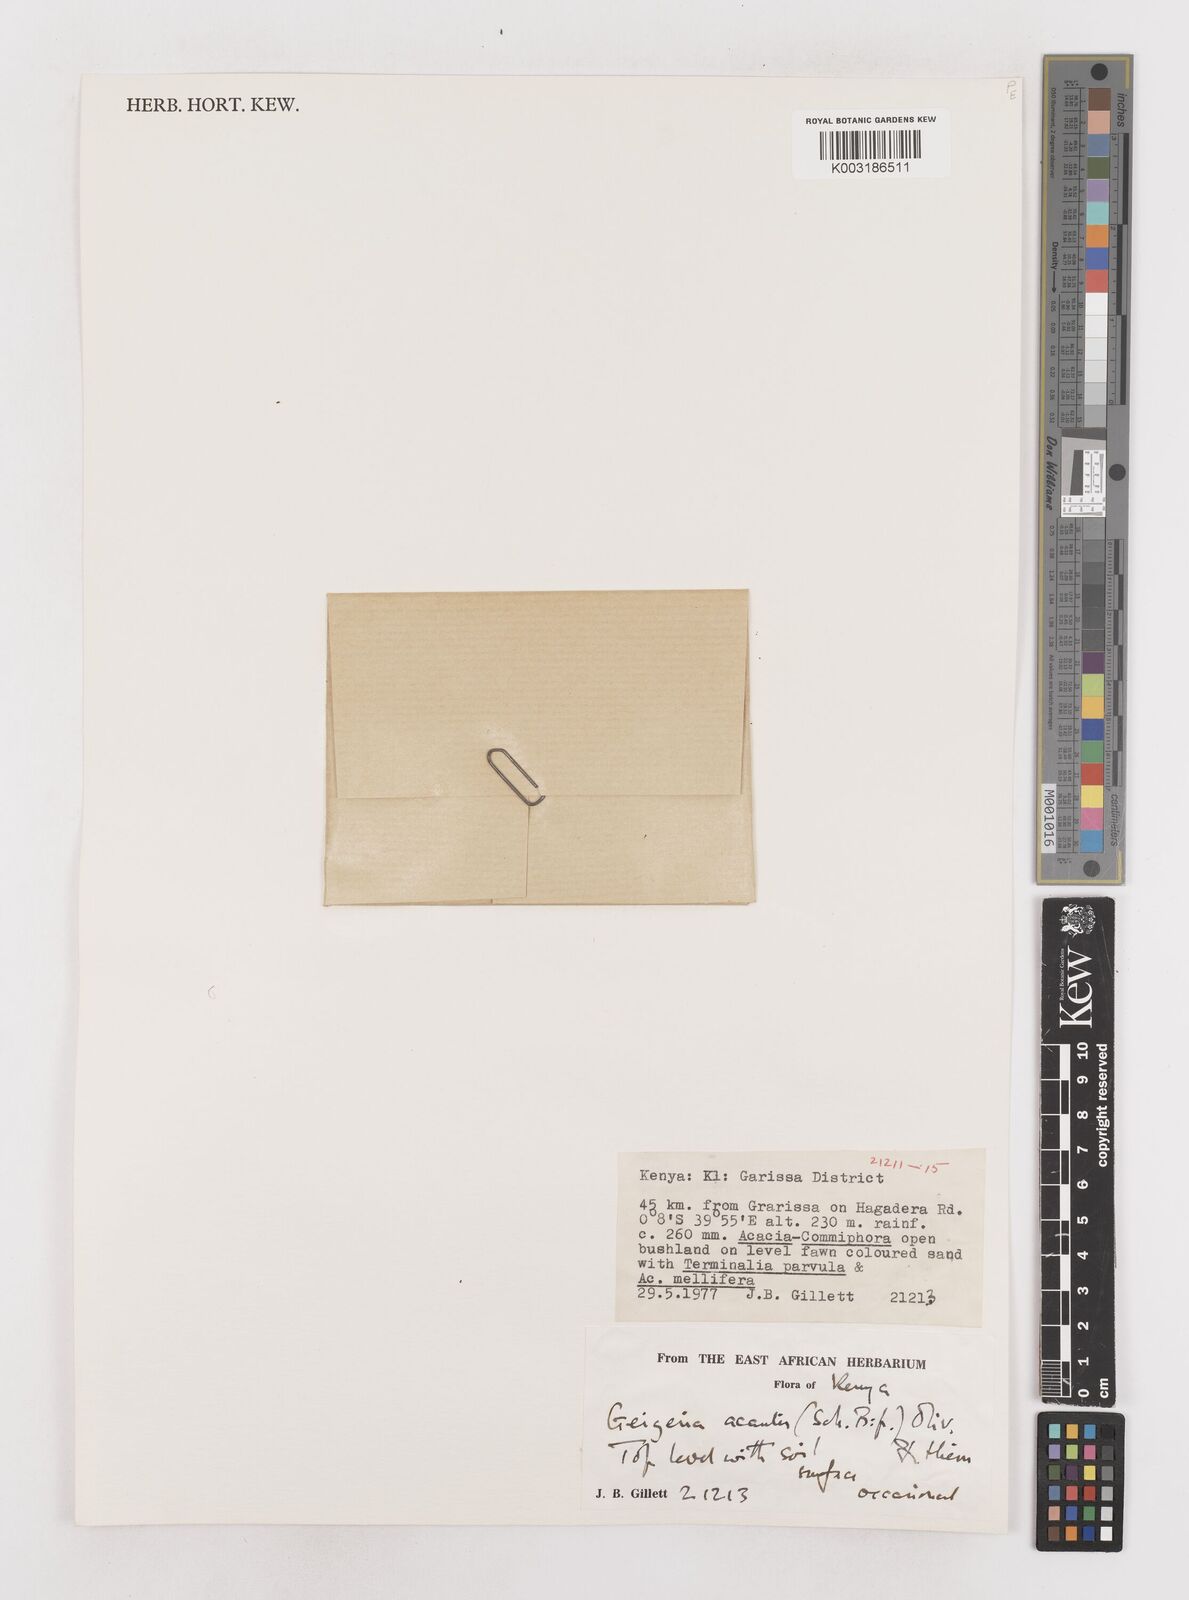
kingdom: Plantae
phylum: Tracheophyta
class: Magnoliopsida
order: Asterales
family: Asteraceae
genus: Geigeria
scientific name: Geigeria acaulis
